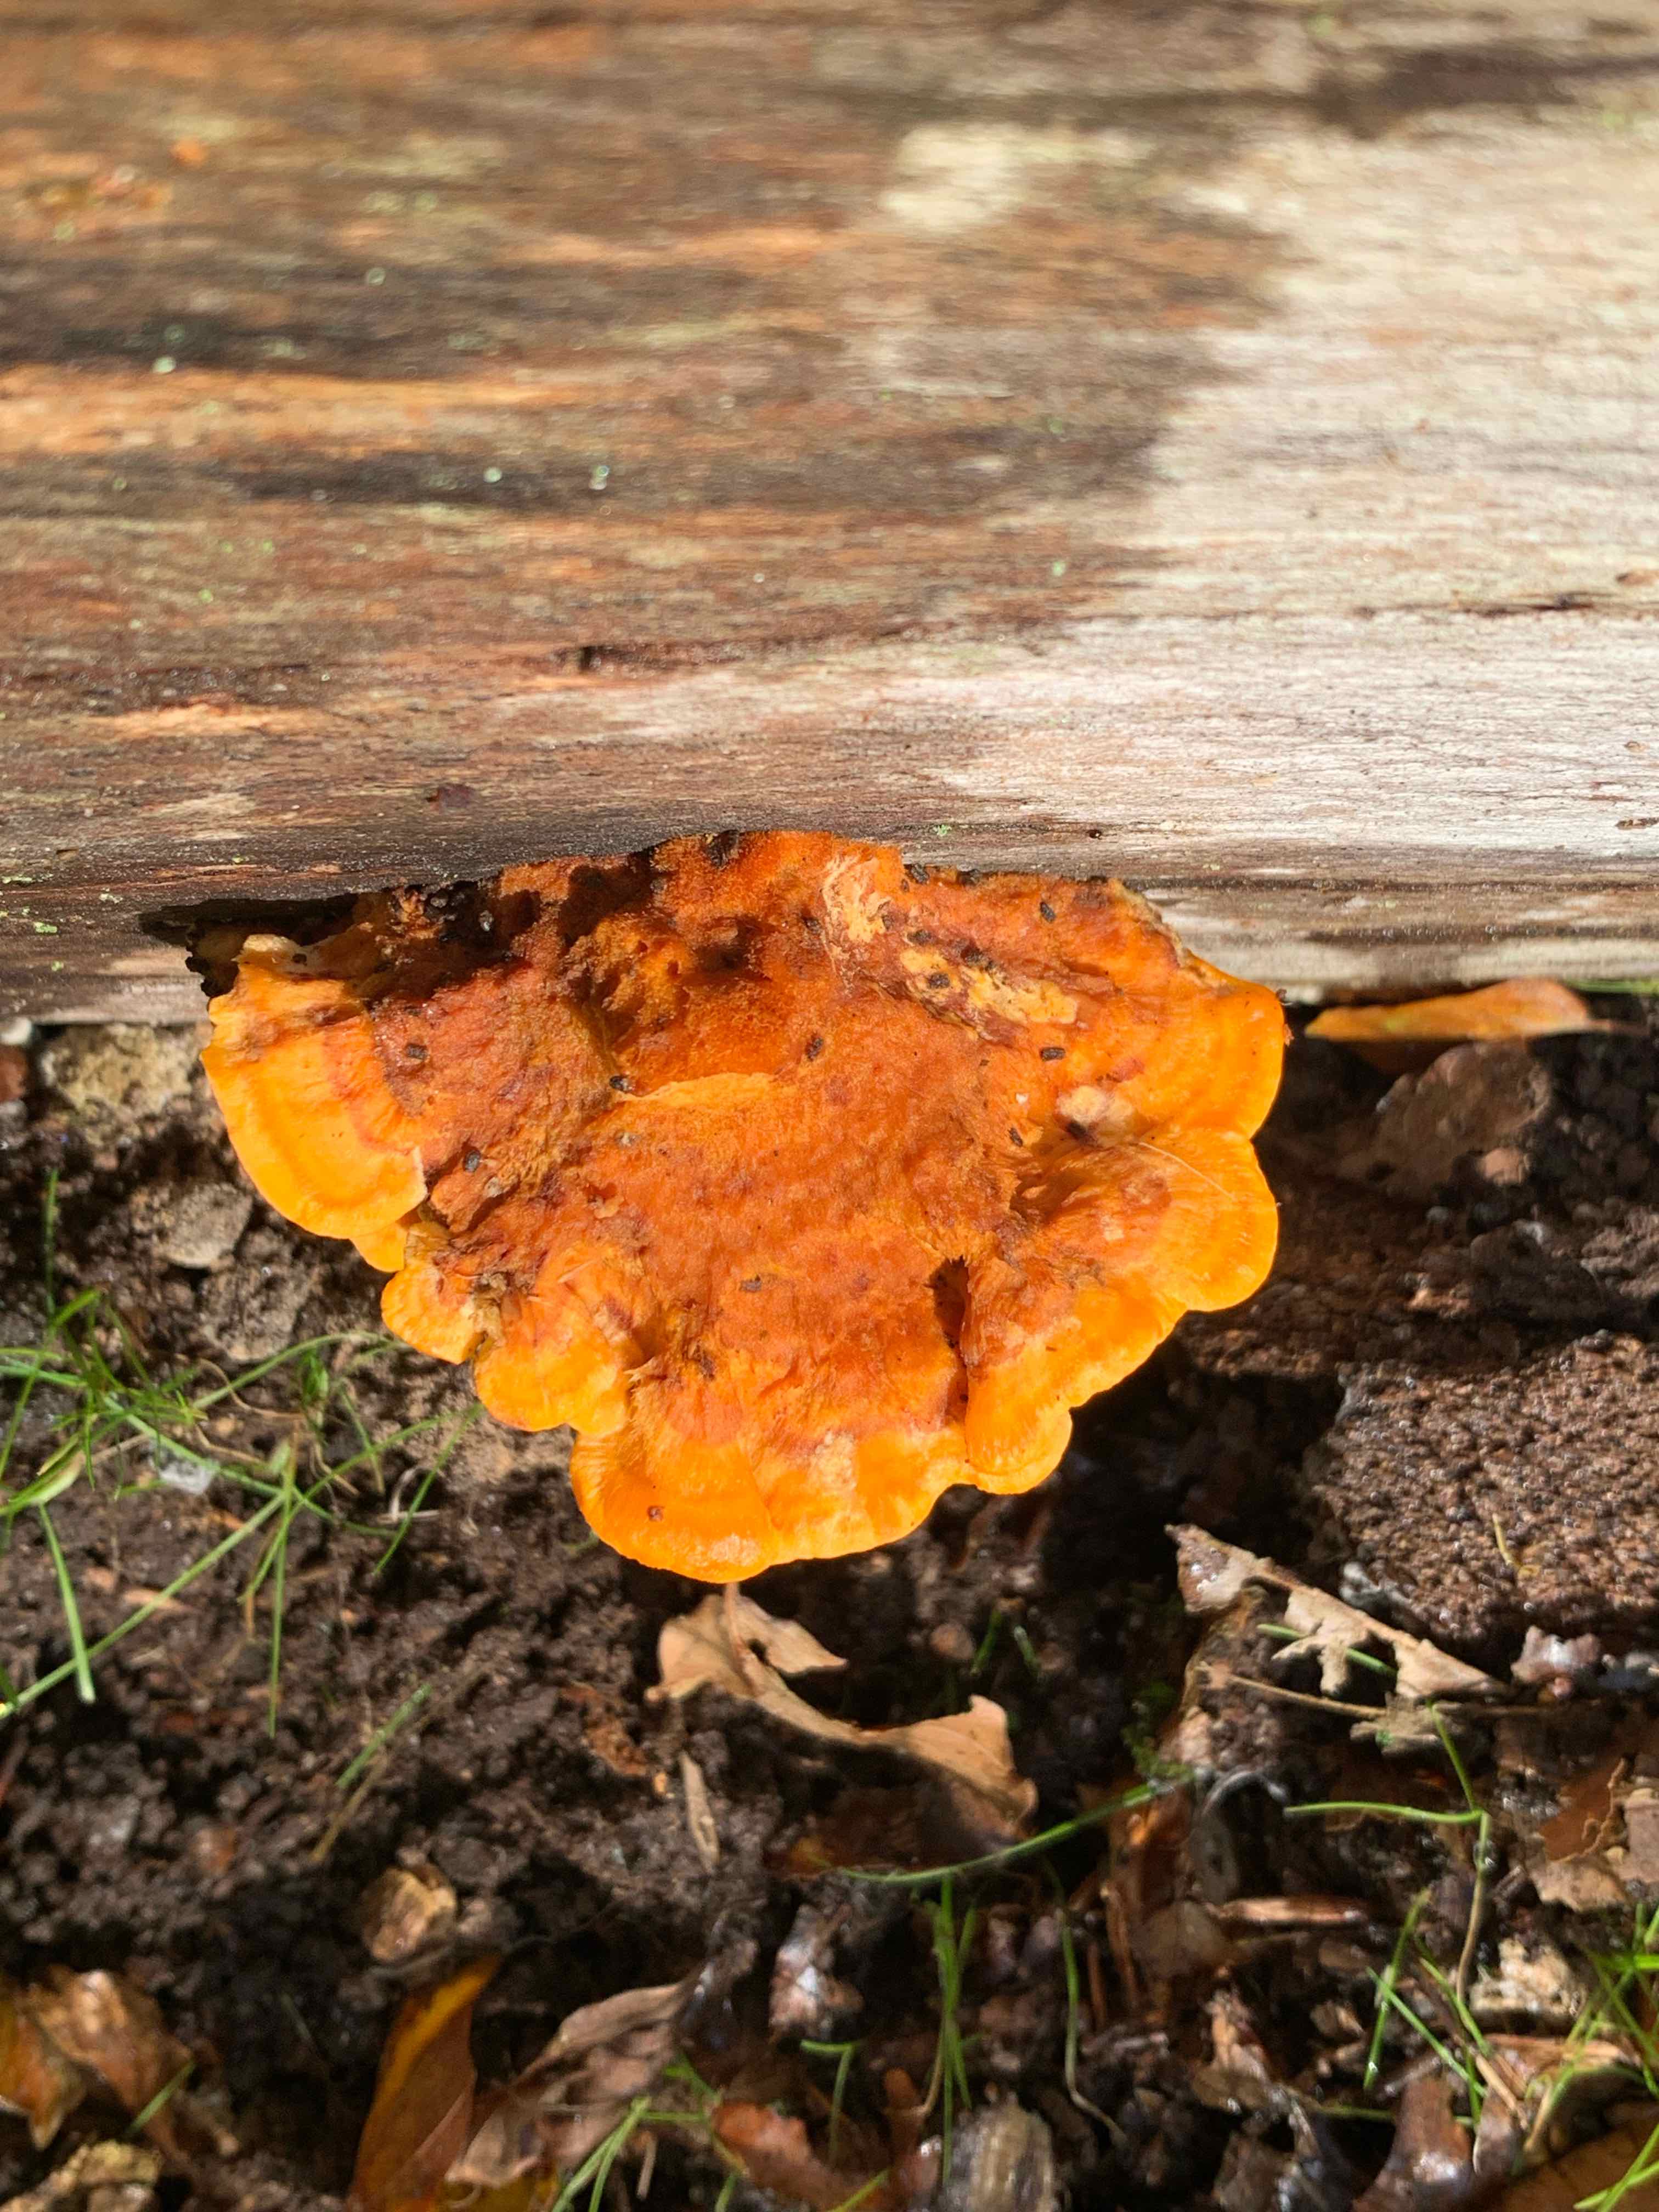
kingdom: Fungi
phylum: Basidiomycota
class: Agaricomycetes
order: Polyporales
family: Pycnoporellaceae
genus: Pycnoporellus
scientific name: Pycnoporellus fulgens
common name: flammeporesvamp
